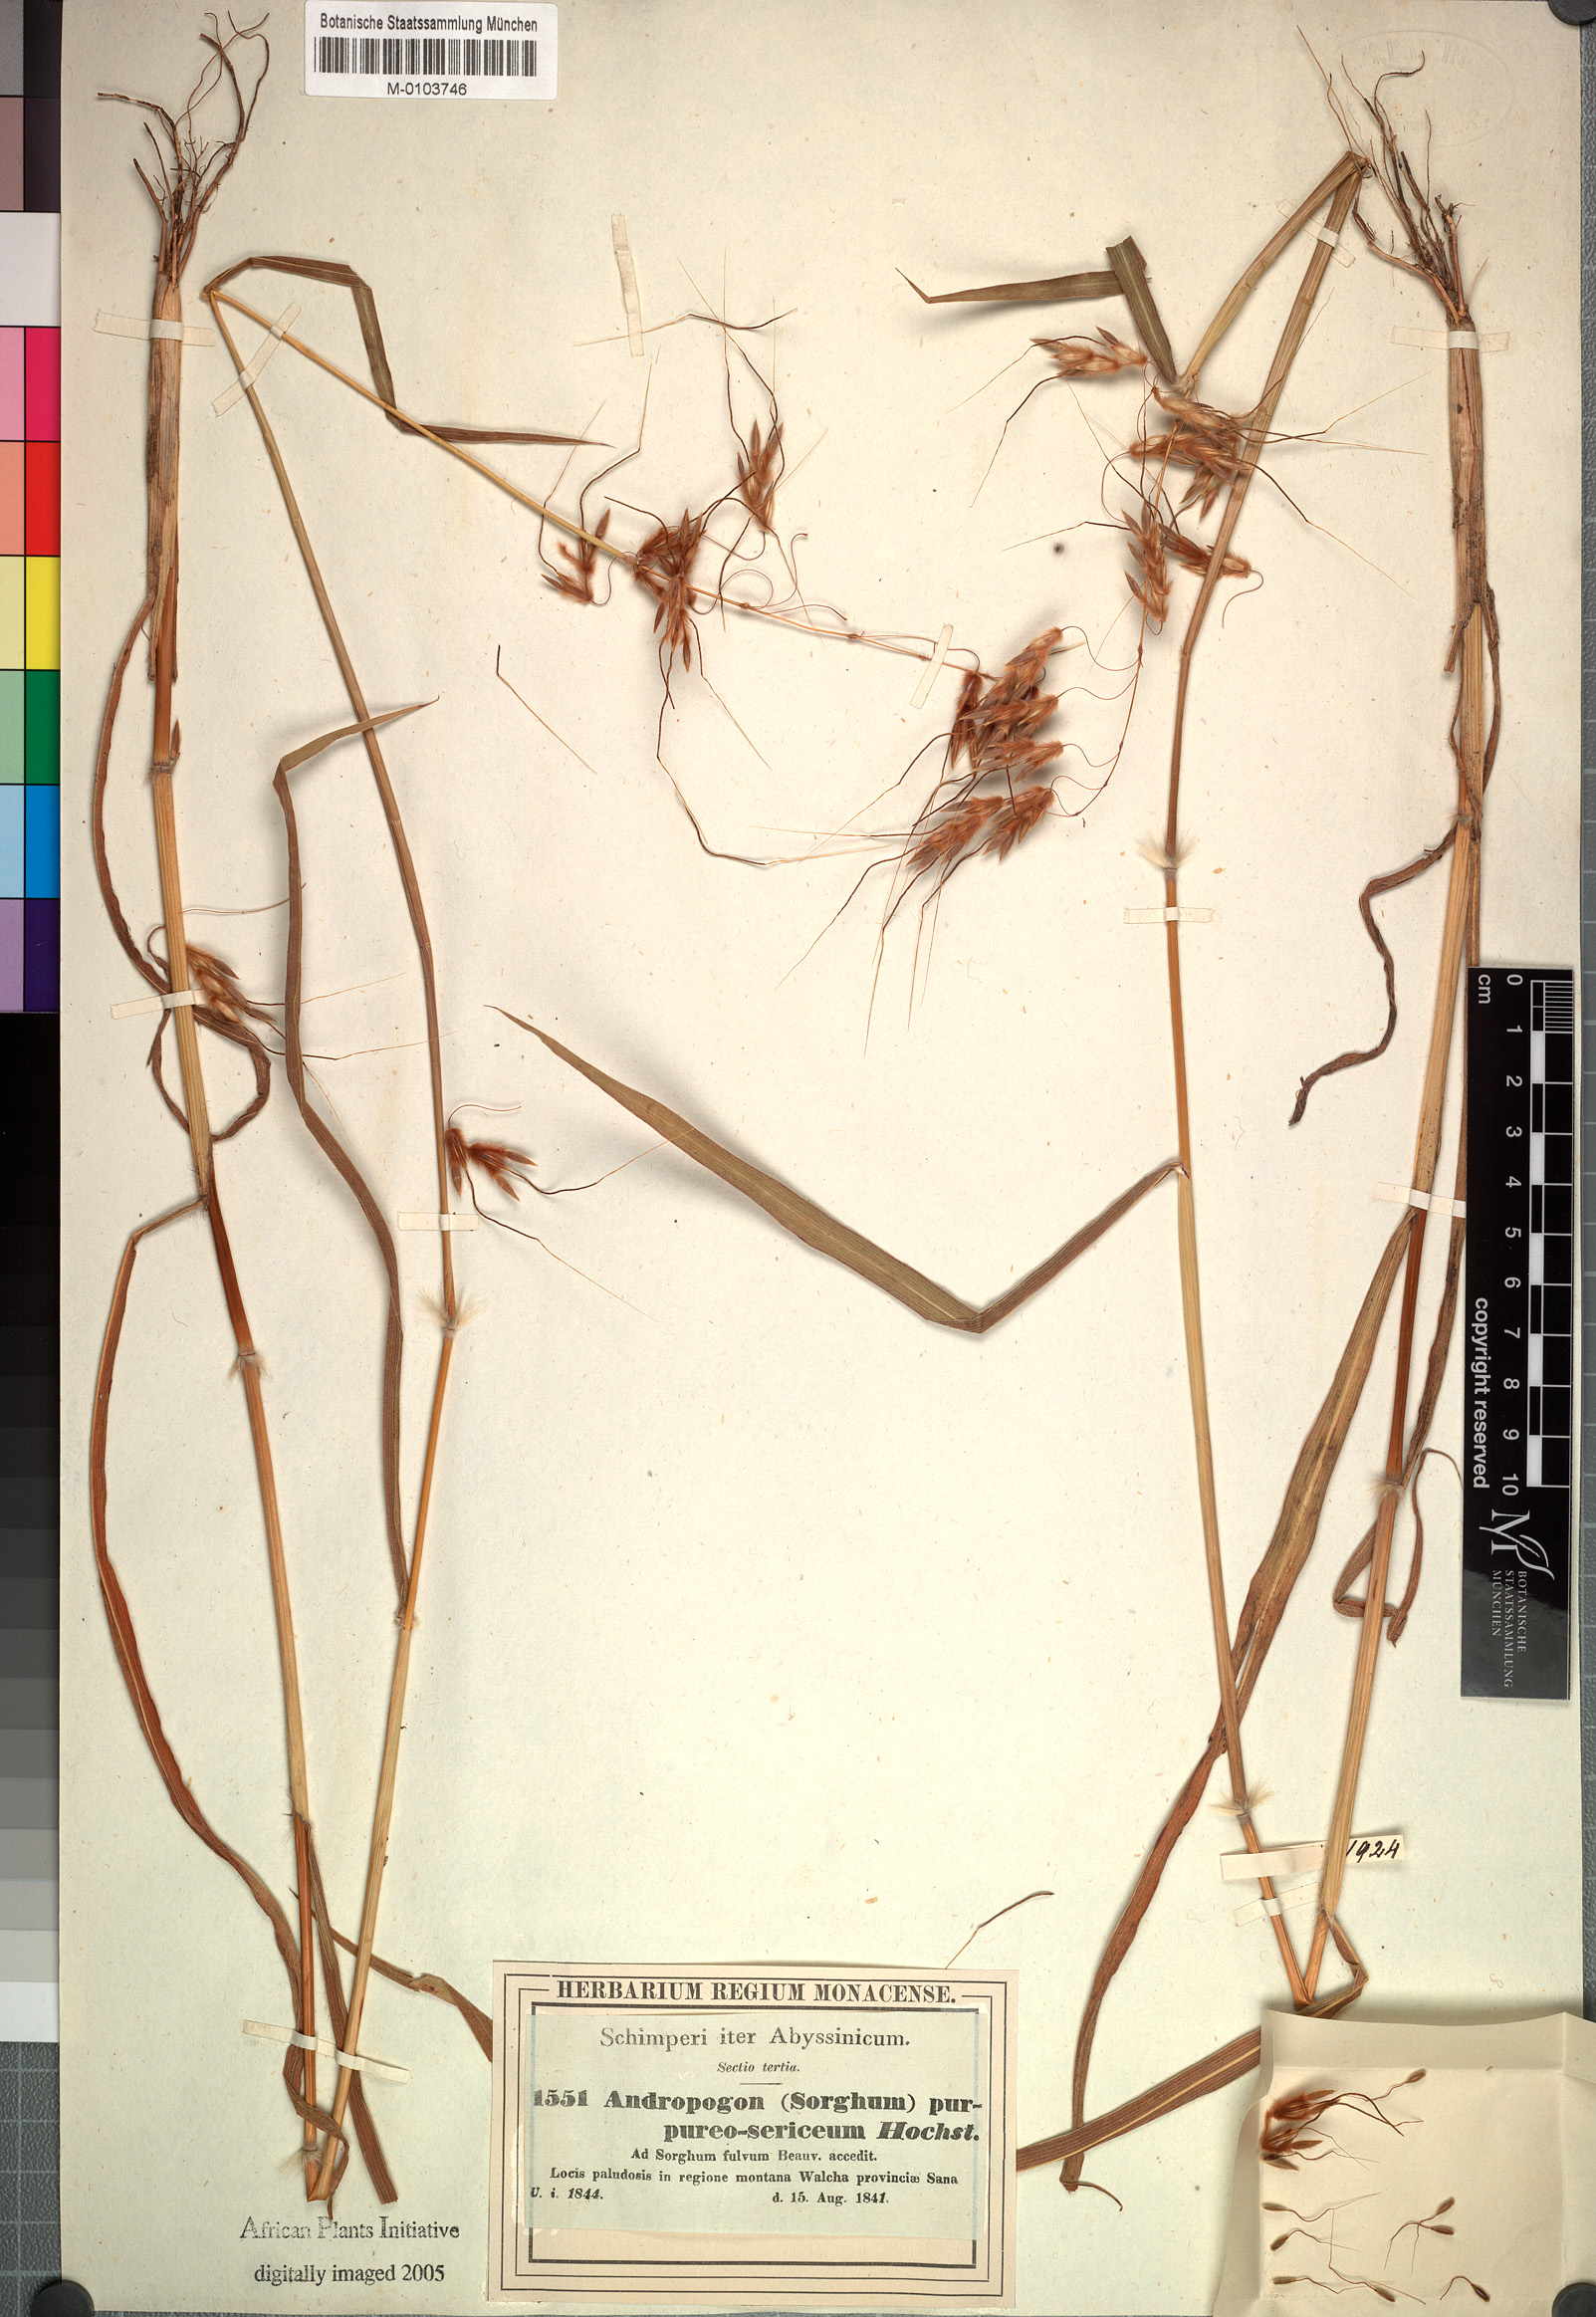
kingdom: Plantae
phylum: Tracheophyta
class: Liliopsida
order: Poales
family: Poaceae
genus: Sarga
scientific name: Sarga purpureosericea
